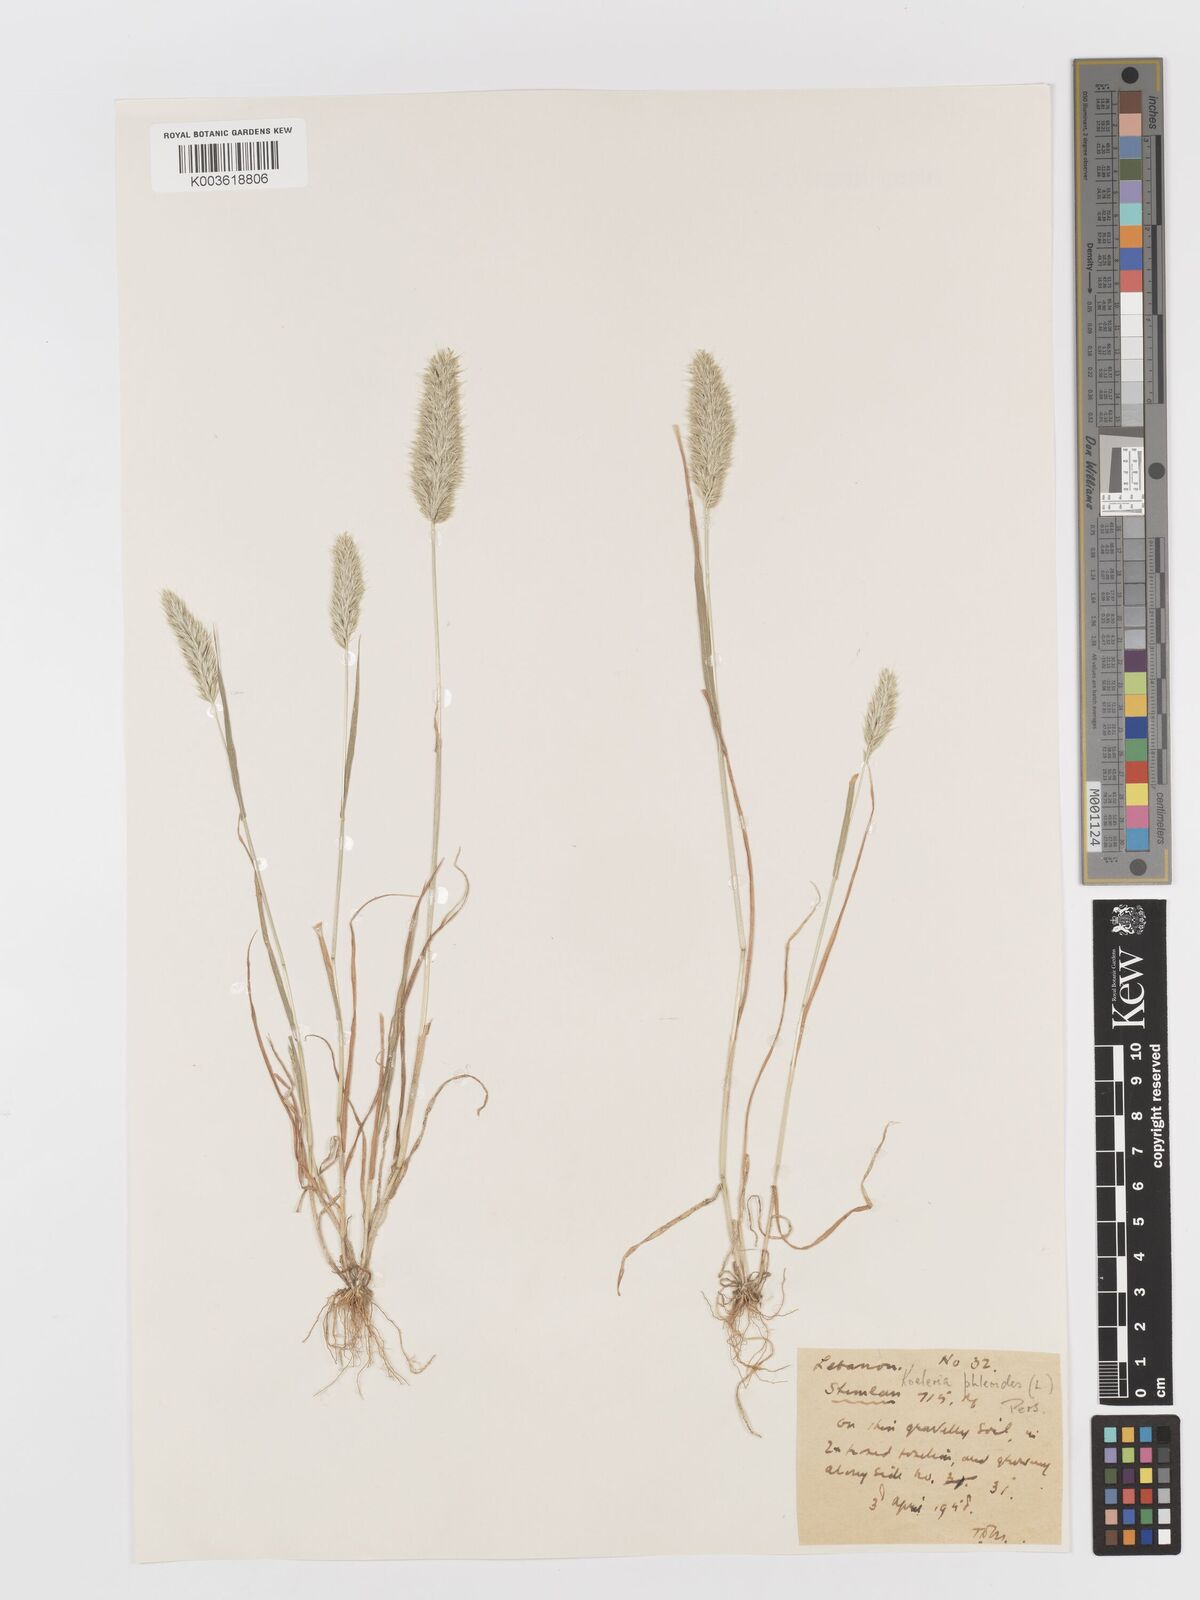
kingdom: Plantae
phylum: Tracheophyta
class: Liliopsida
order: Poales
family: Poaceae
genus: Rostraria
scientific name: Rostraria cristata
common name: Mediterranean hair-grass
